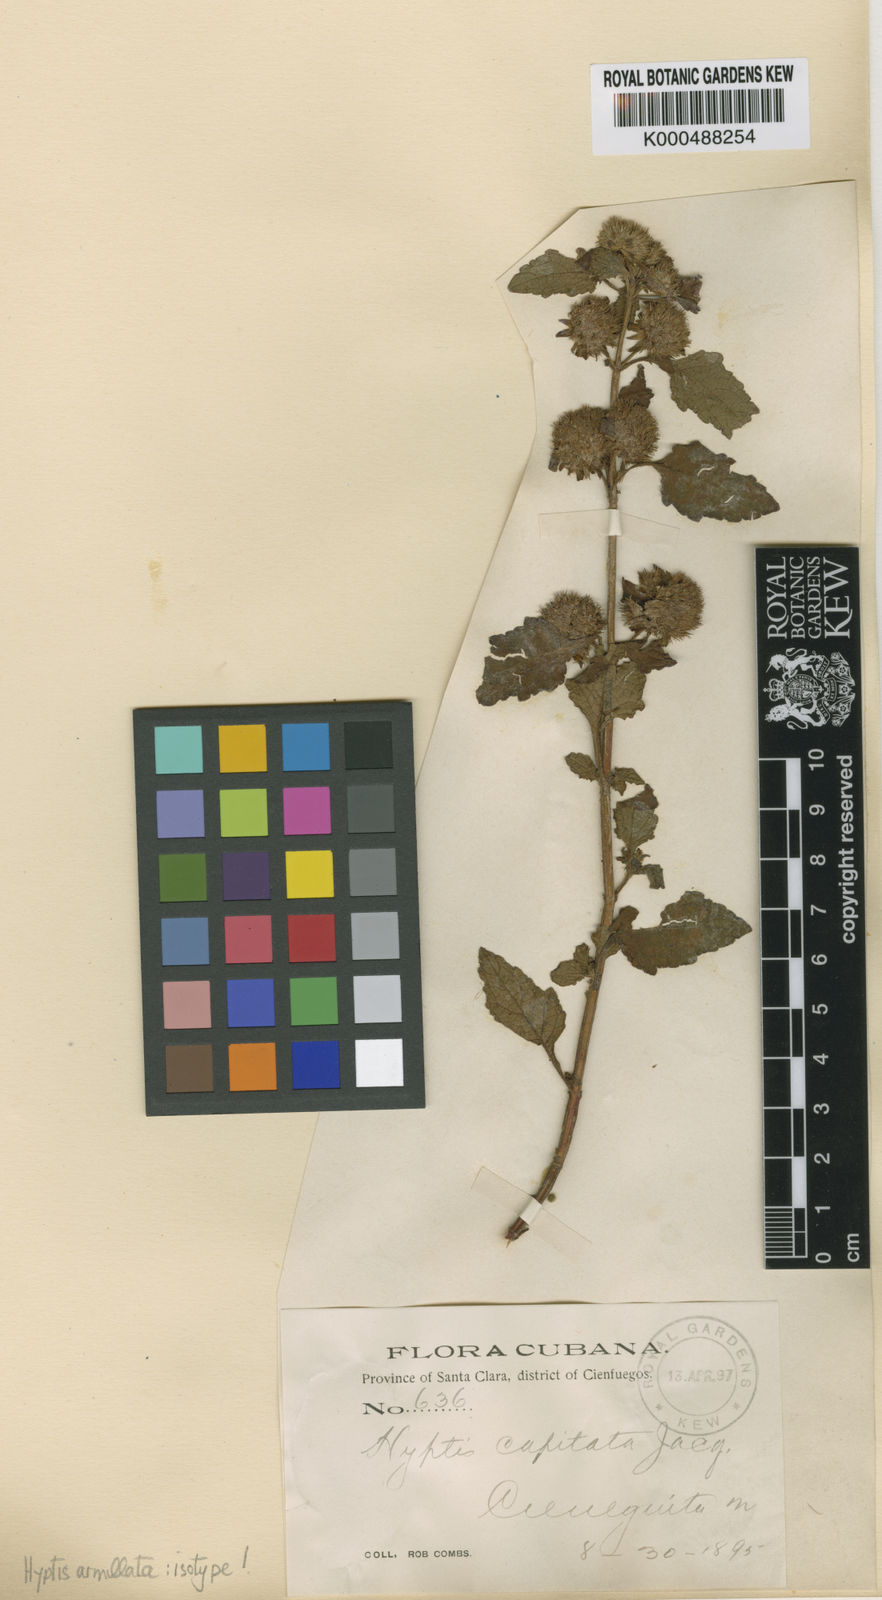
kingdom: Plantae
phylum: Tracheophyta
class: Magnoliopsida
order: Lamiales
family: Lamiaceae
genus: Hyptis
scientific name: Hyptis armillata
